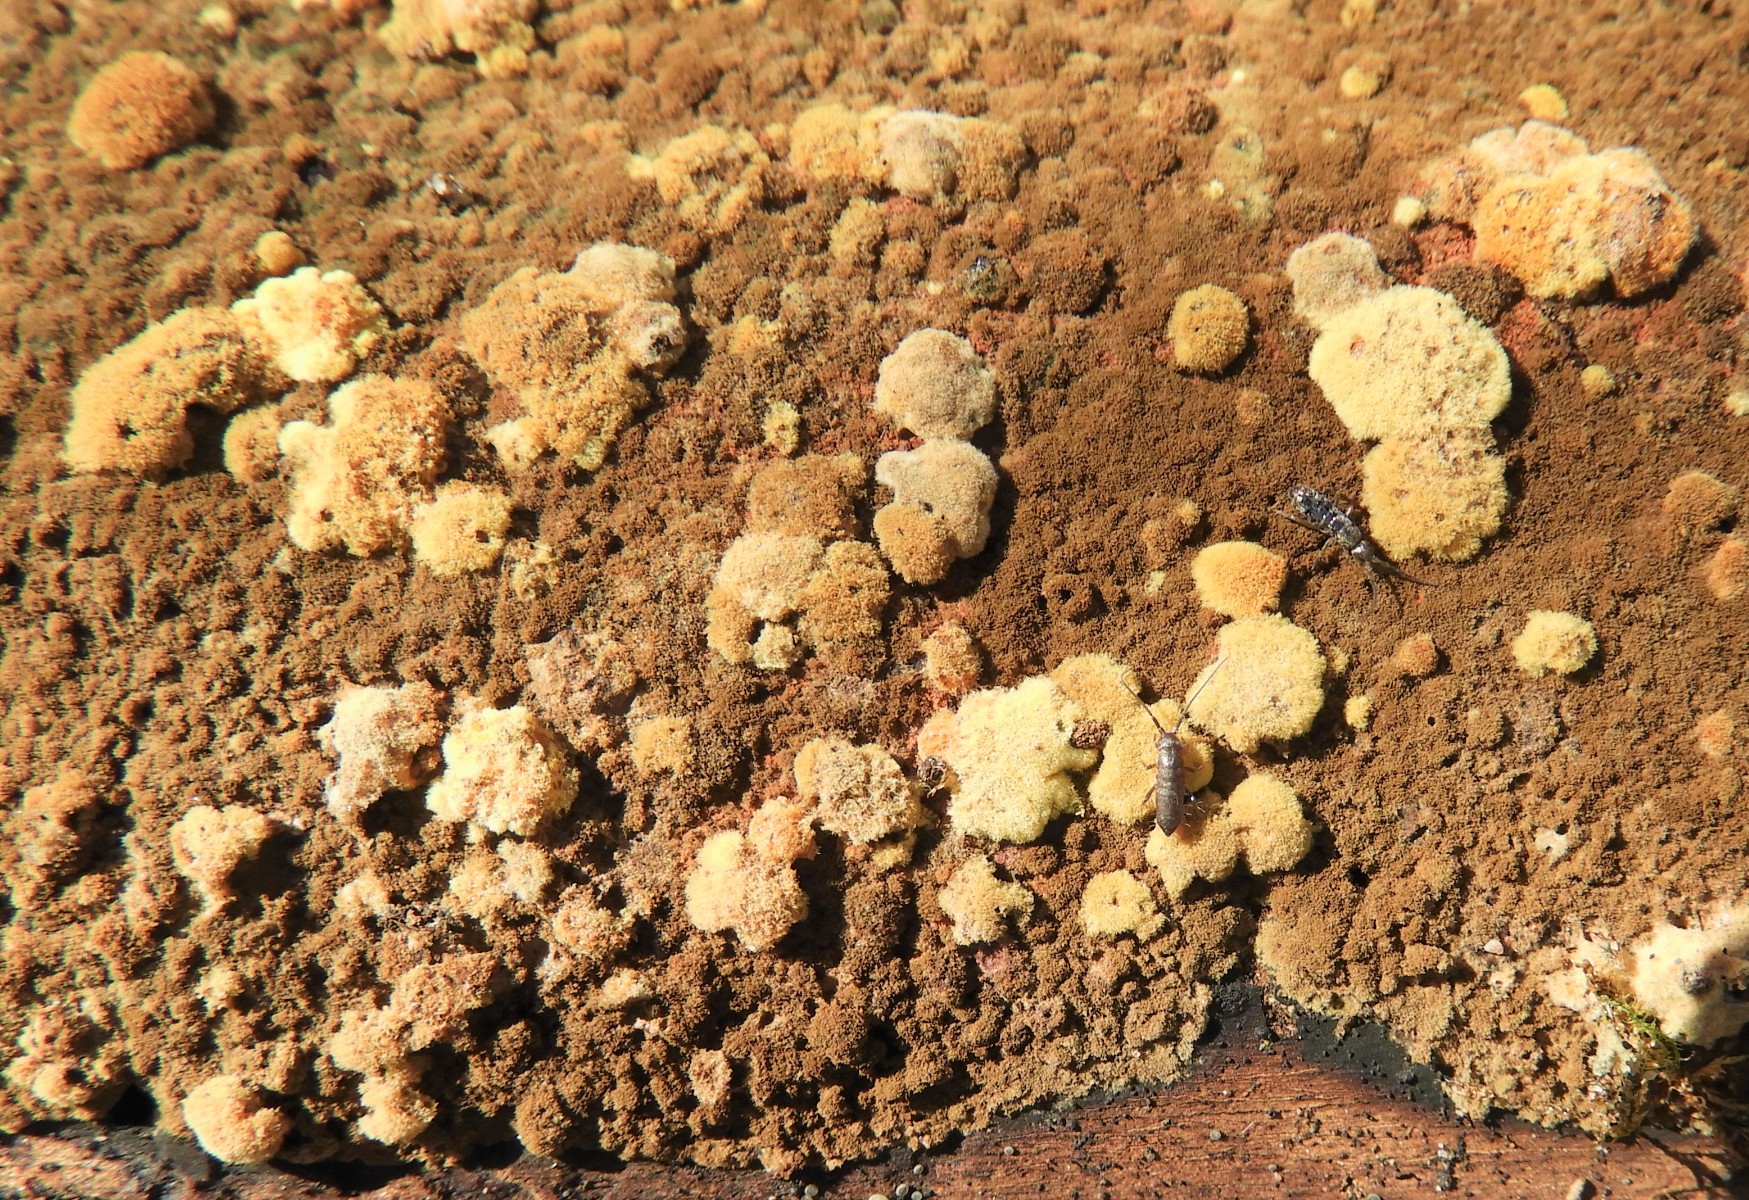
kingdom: Fungi
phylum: Ascomycota
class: Sordariomycetes
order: Xylariales
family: Hypoxylaceae
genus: Hypoxylon
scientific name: Hypoxylon
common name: kulbær
